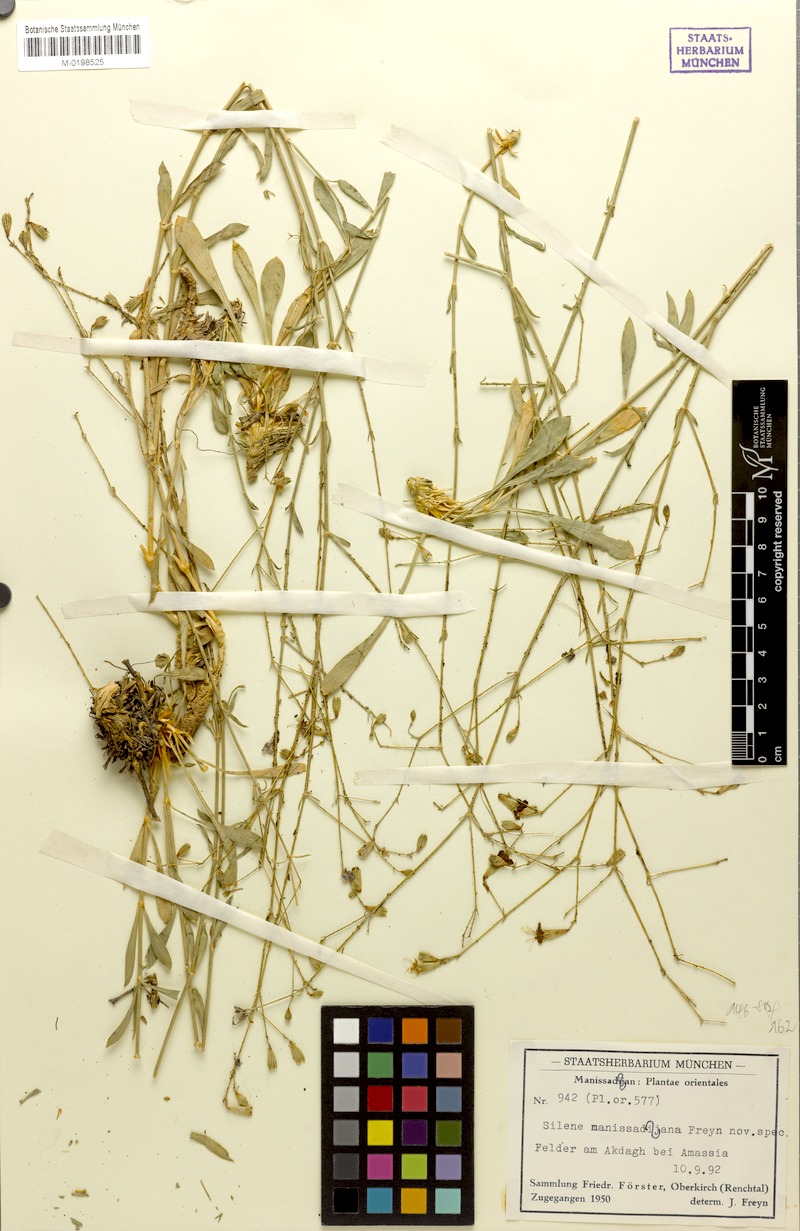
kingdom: Plantae
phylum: Tracheophyta
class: Magnoliopsida
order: Caryophyllales
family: Caryophyllaceae
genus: Silene
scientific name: Silene manissadjianii
